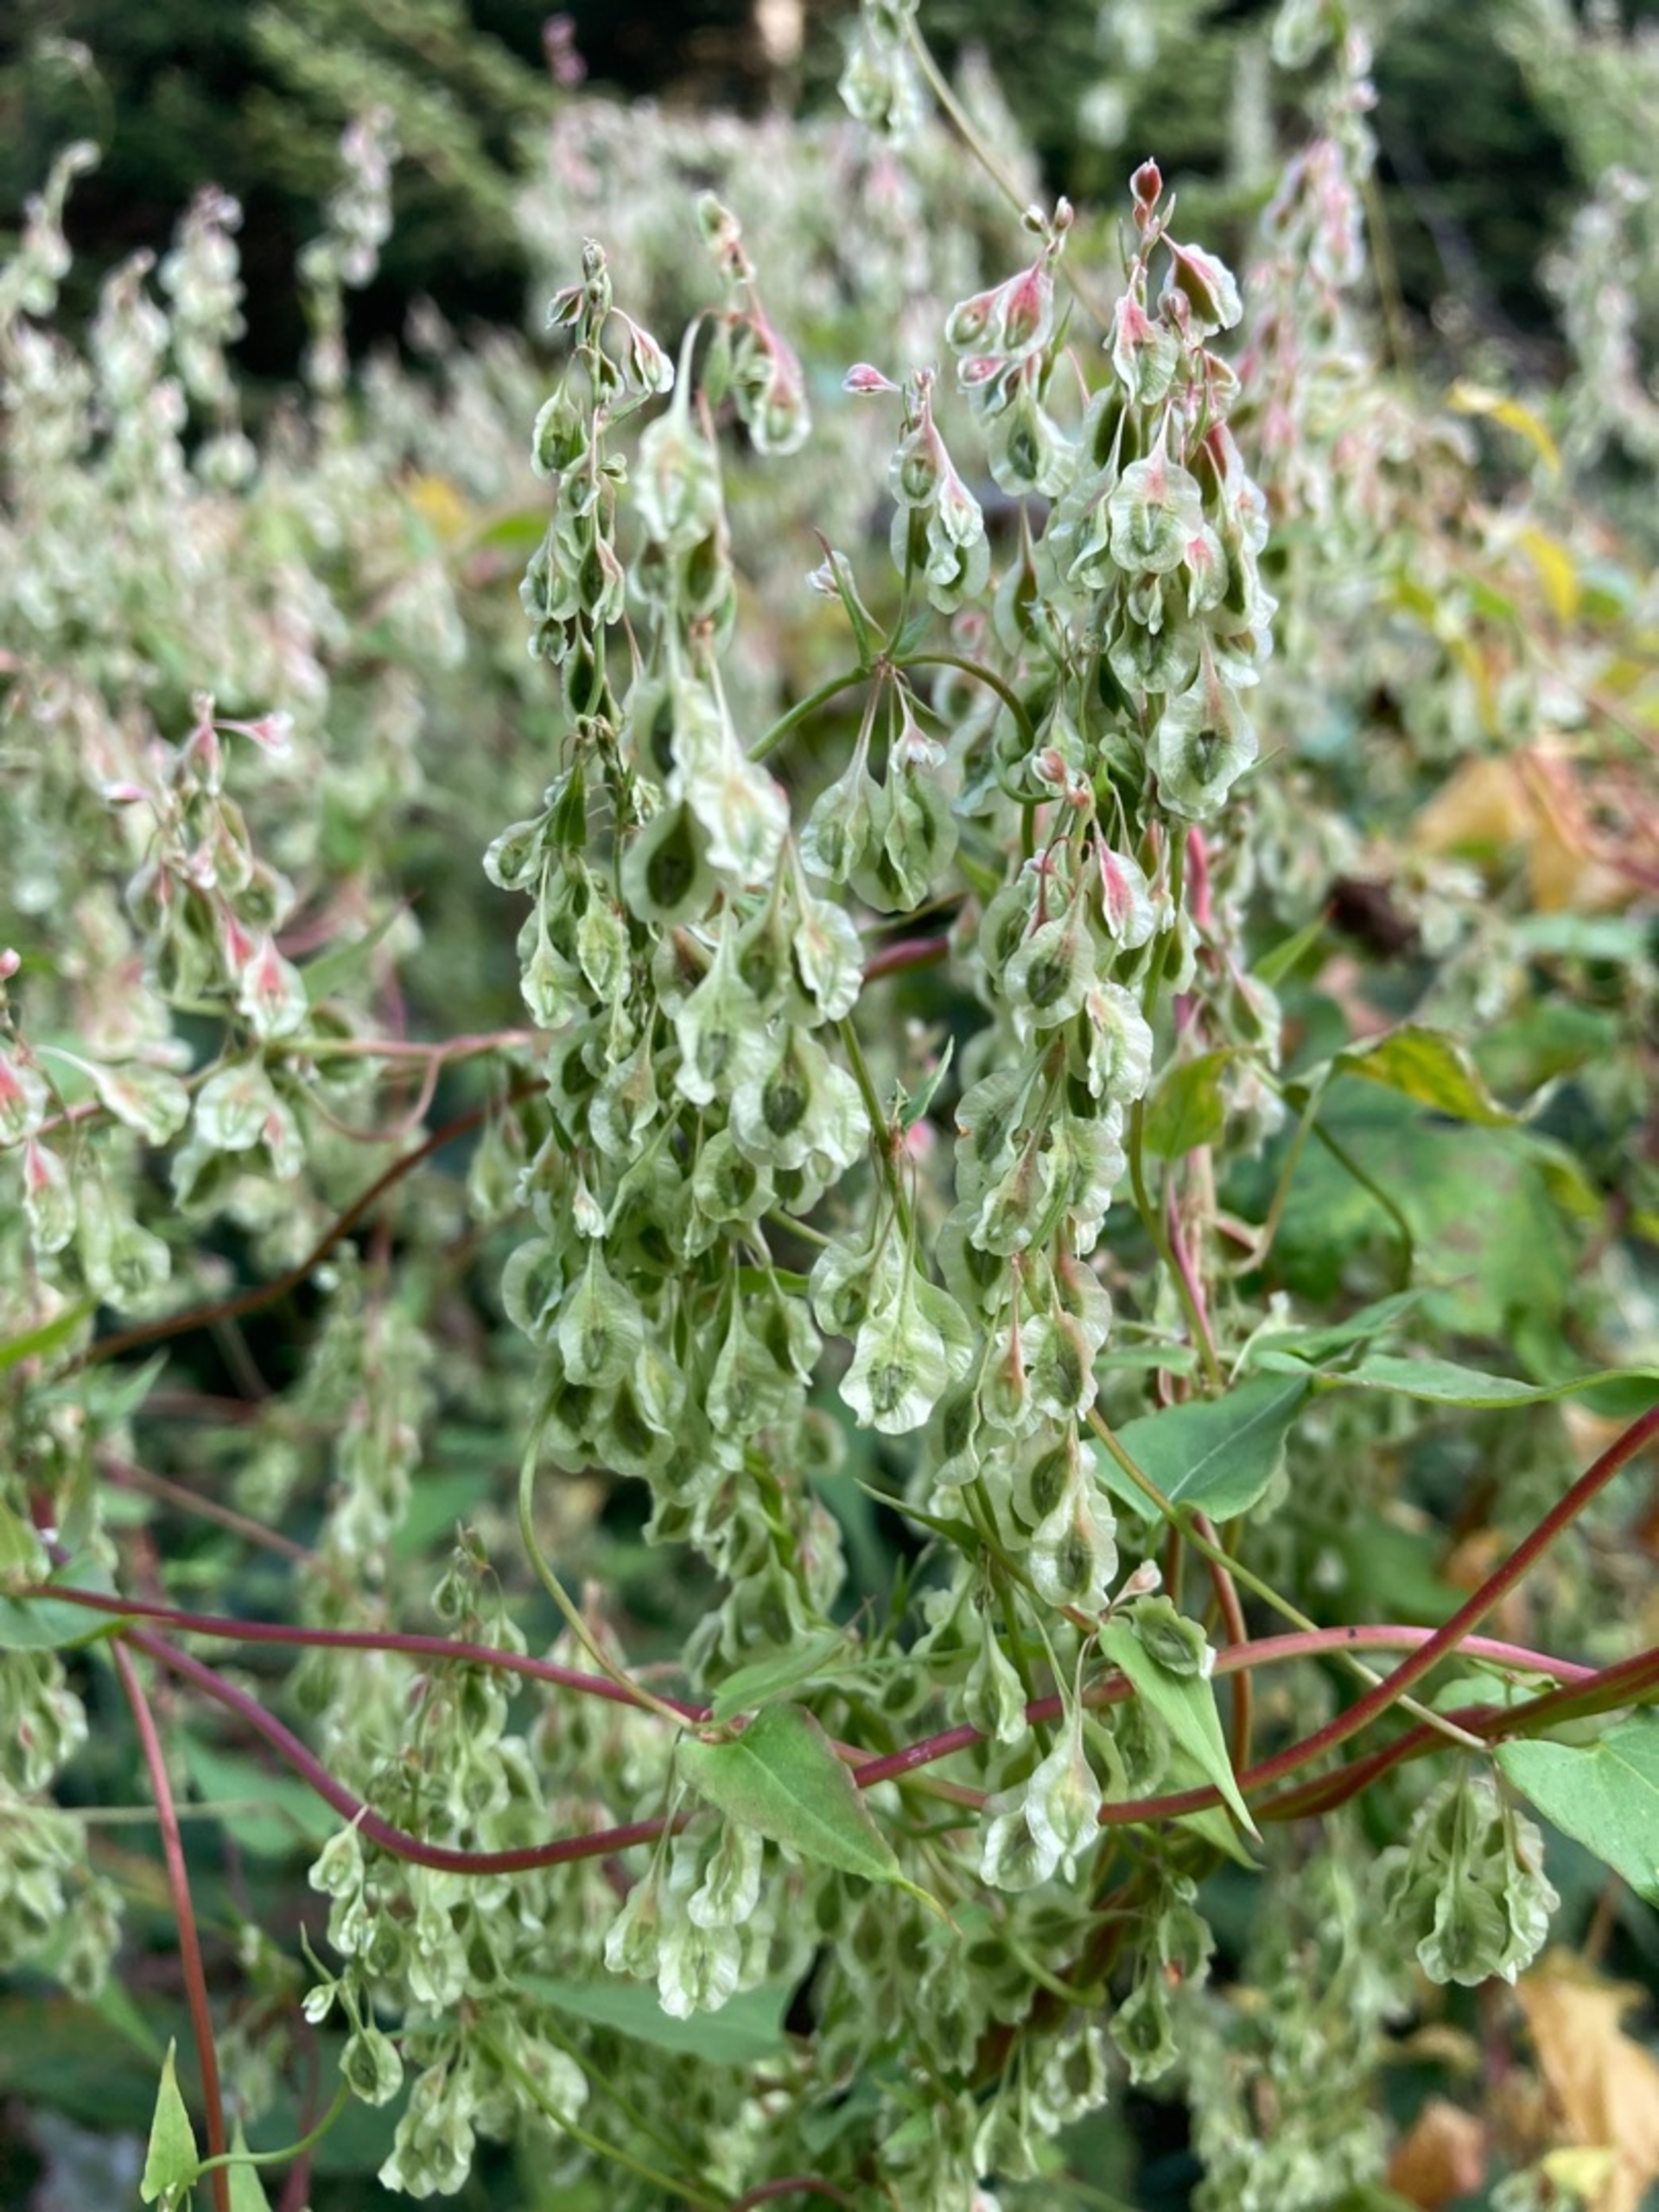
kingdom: Plantae
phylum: Tracheophyta
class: Magnoliopsida
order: Caryophyllales
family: Polygonaceae
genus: Fallopia
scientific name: Fallopia dumetorum
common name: Vinge-pileurt
